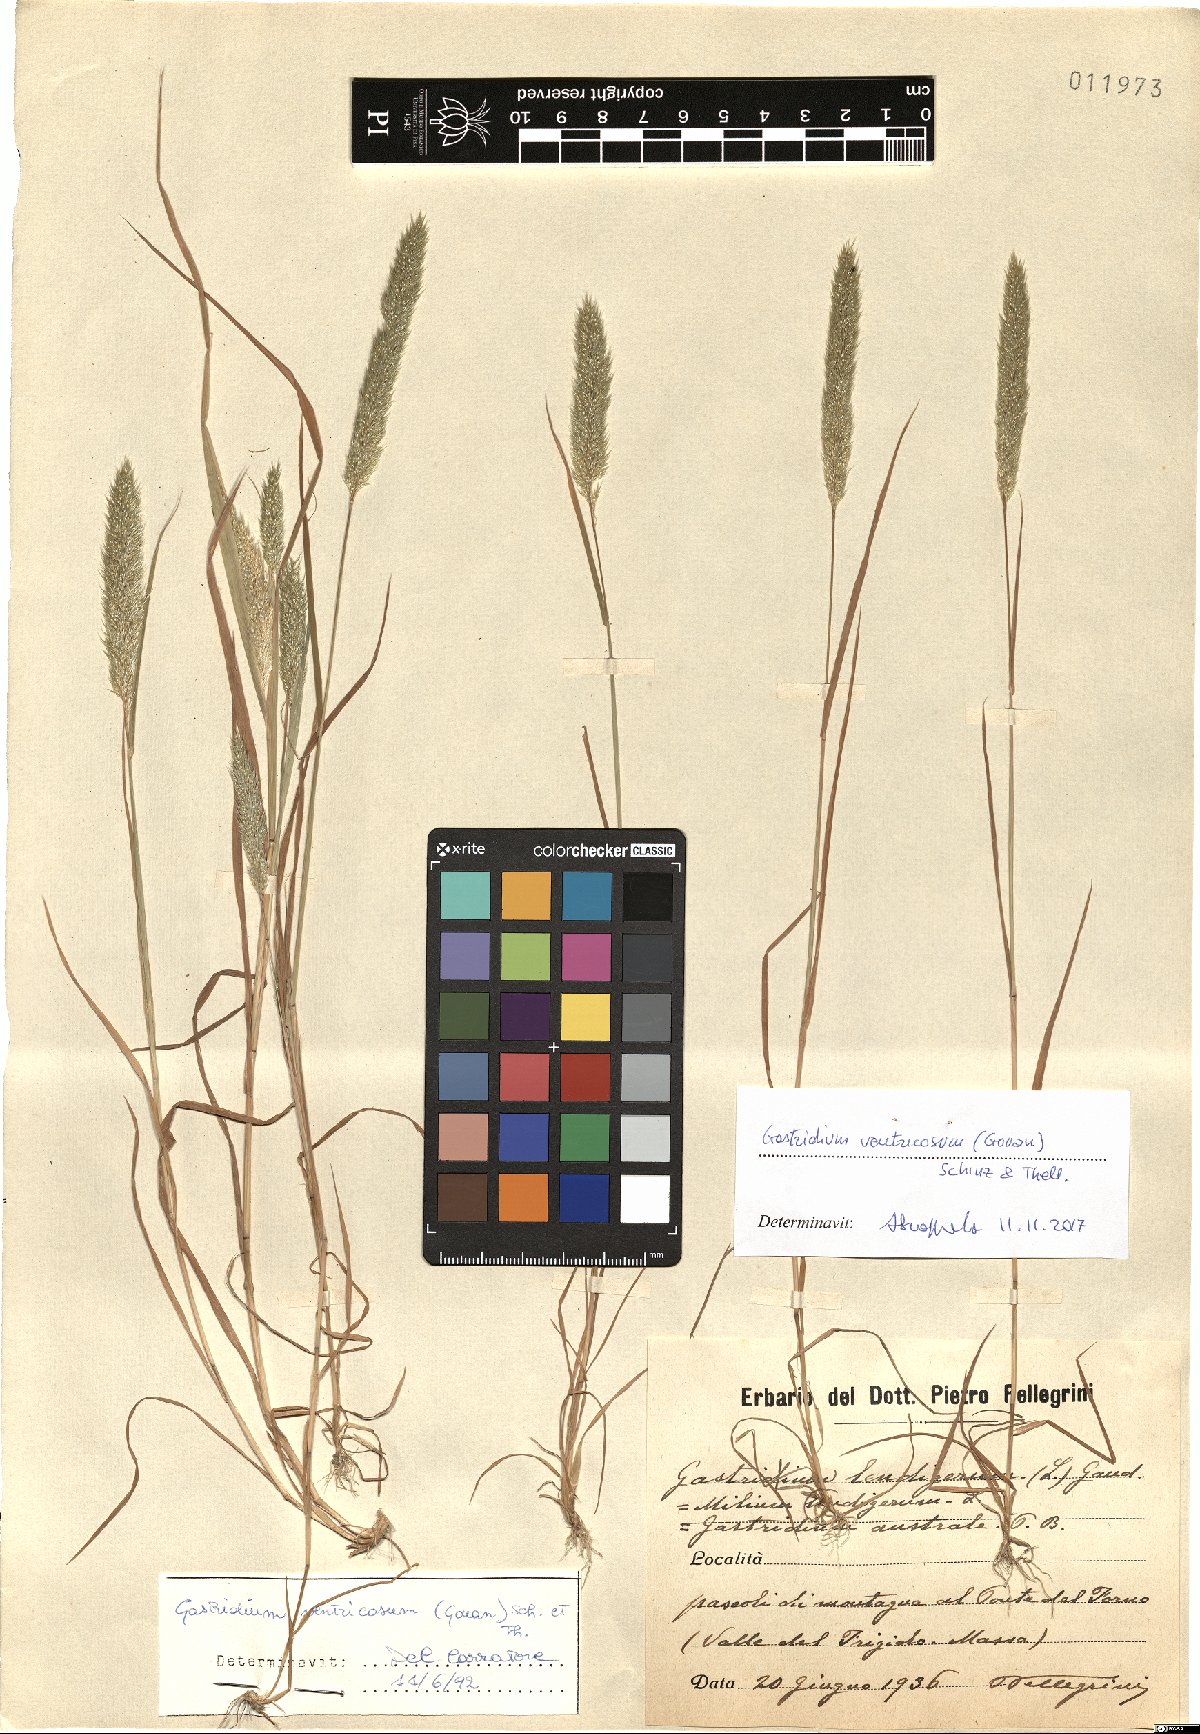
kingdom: Plantae
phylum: Tracheophyta
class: Liliopsida
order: Poales
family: Poaceae
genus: Gastridium
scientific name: Gastridium ventricosum
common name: Nit-grass
